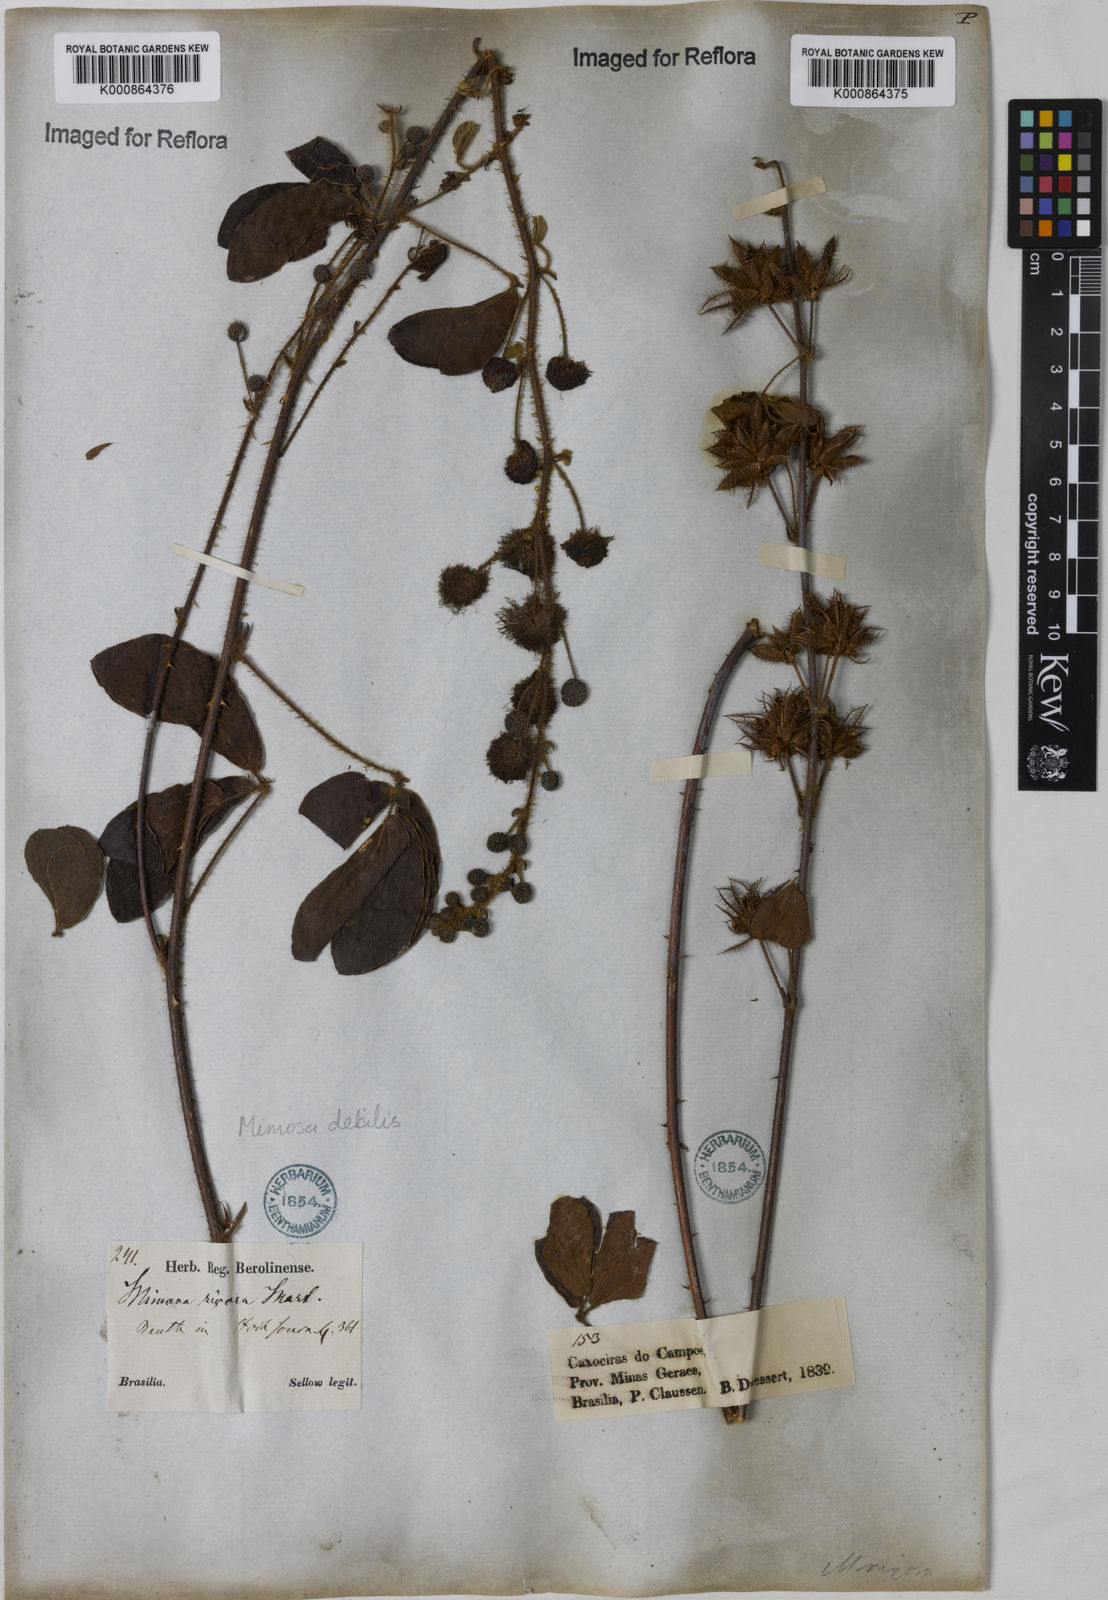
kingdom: Plantae
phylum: Tracheophyta
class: Magnoliopsida
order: Fabales
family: Fabaceae
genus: Mimosa
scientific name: Mimosa
